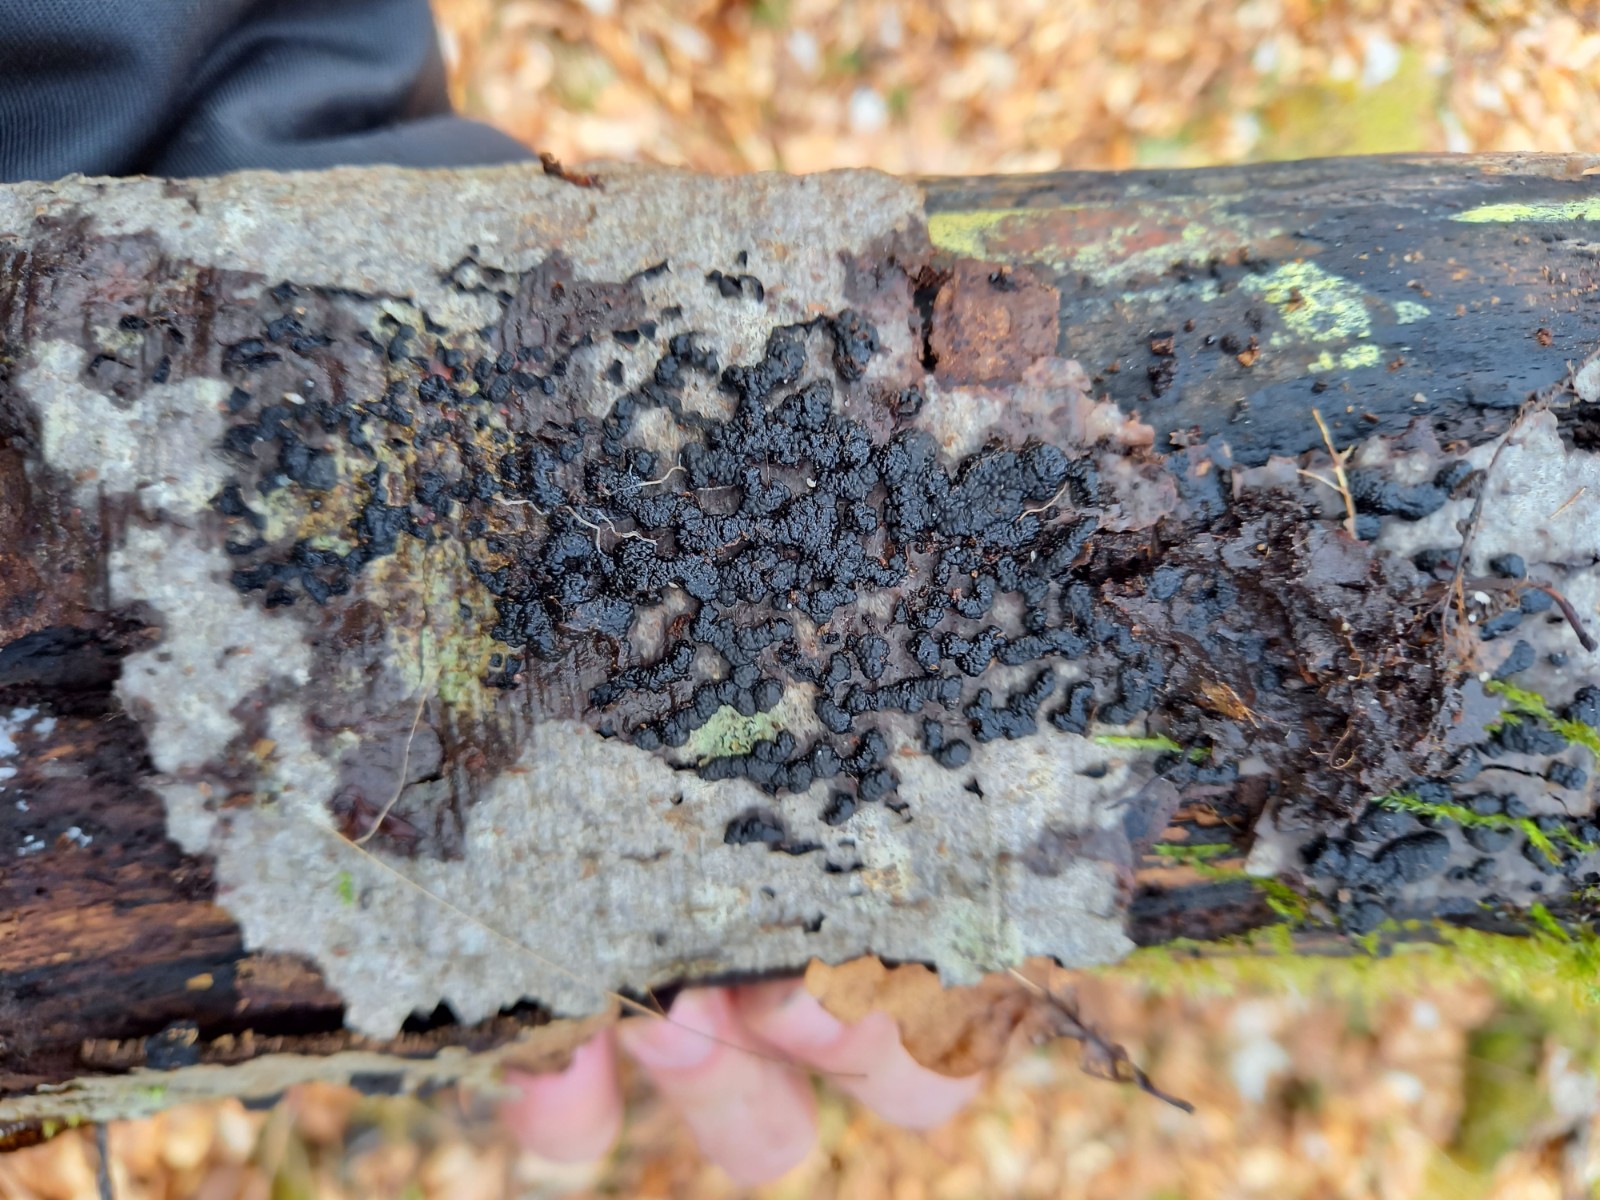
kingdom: Fungi
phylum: Ascomycota
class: Sordariomycetes
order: Xylariales
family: Hypoxylaceae
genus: Jackrogersella
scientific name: Jackrogersella cohaerens
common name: sammenflydende kulbær
